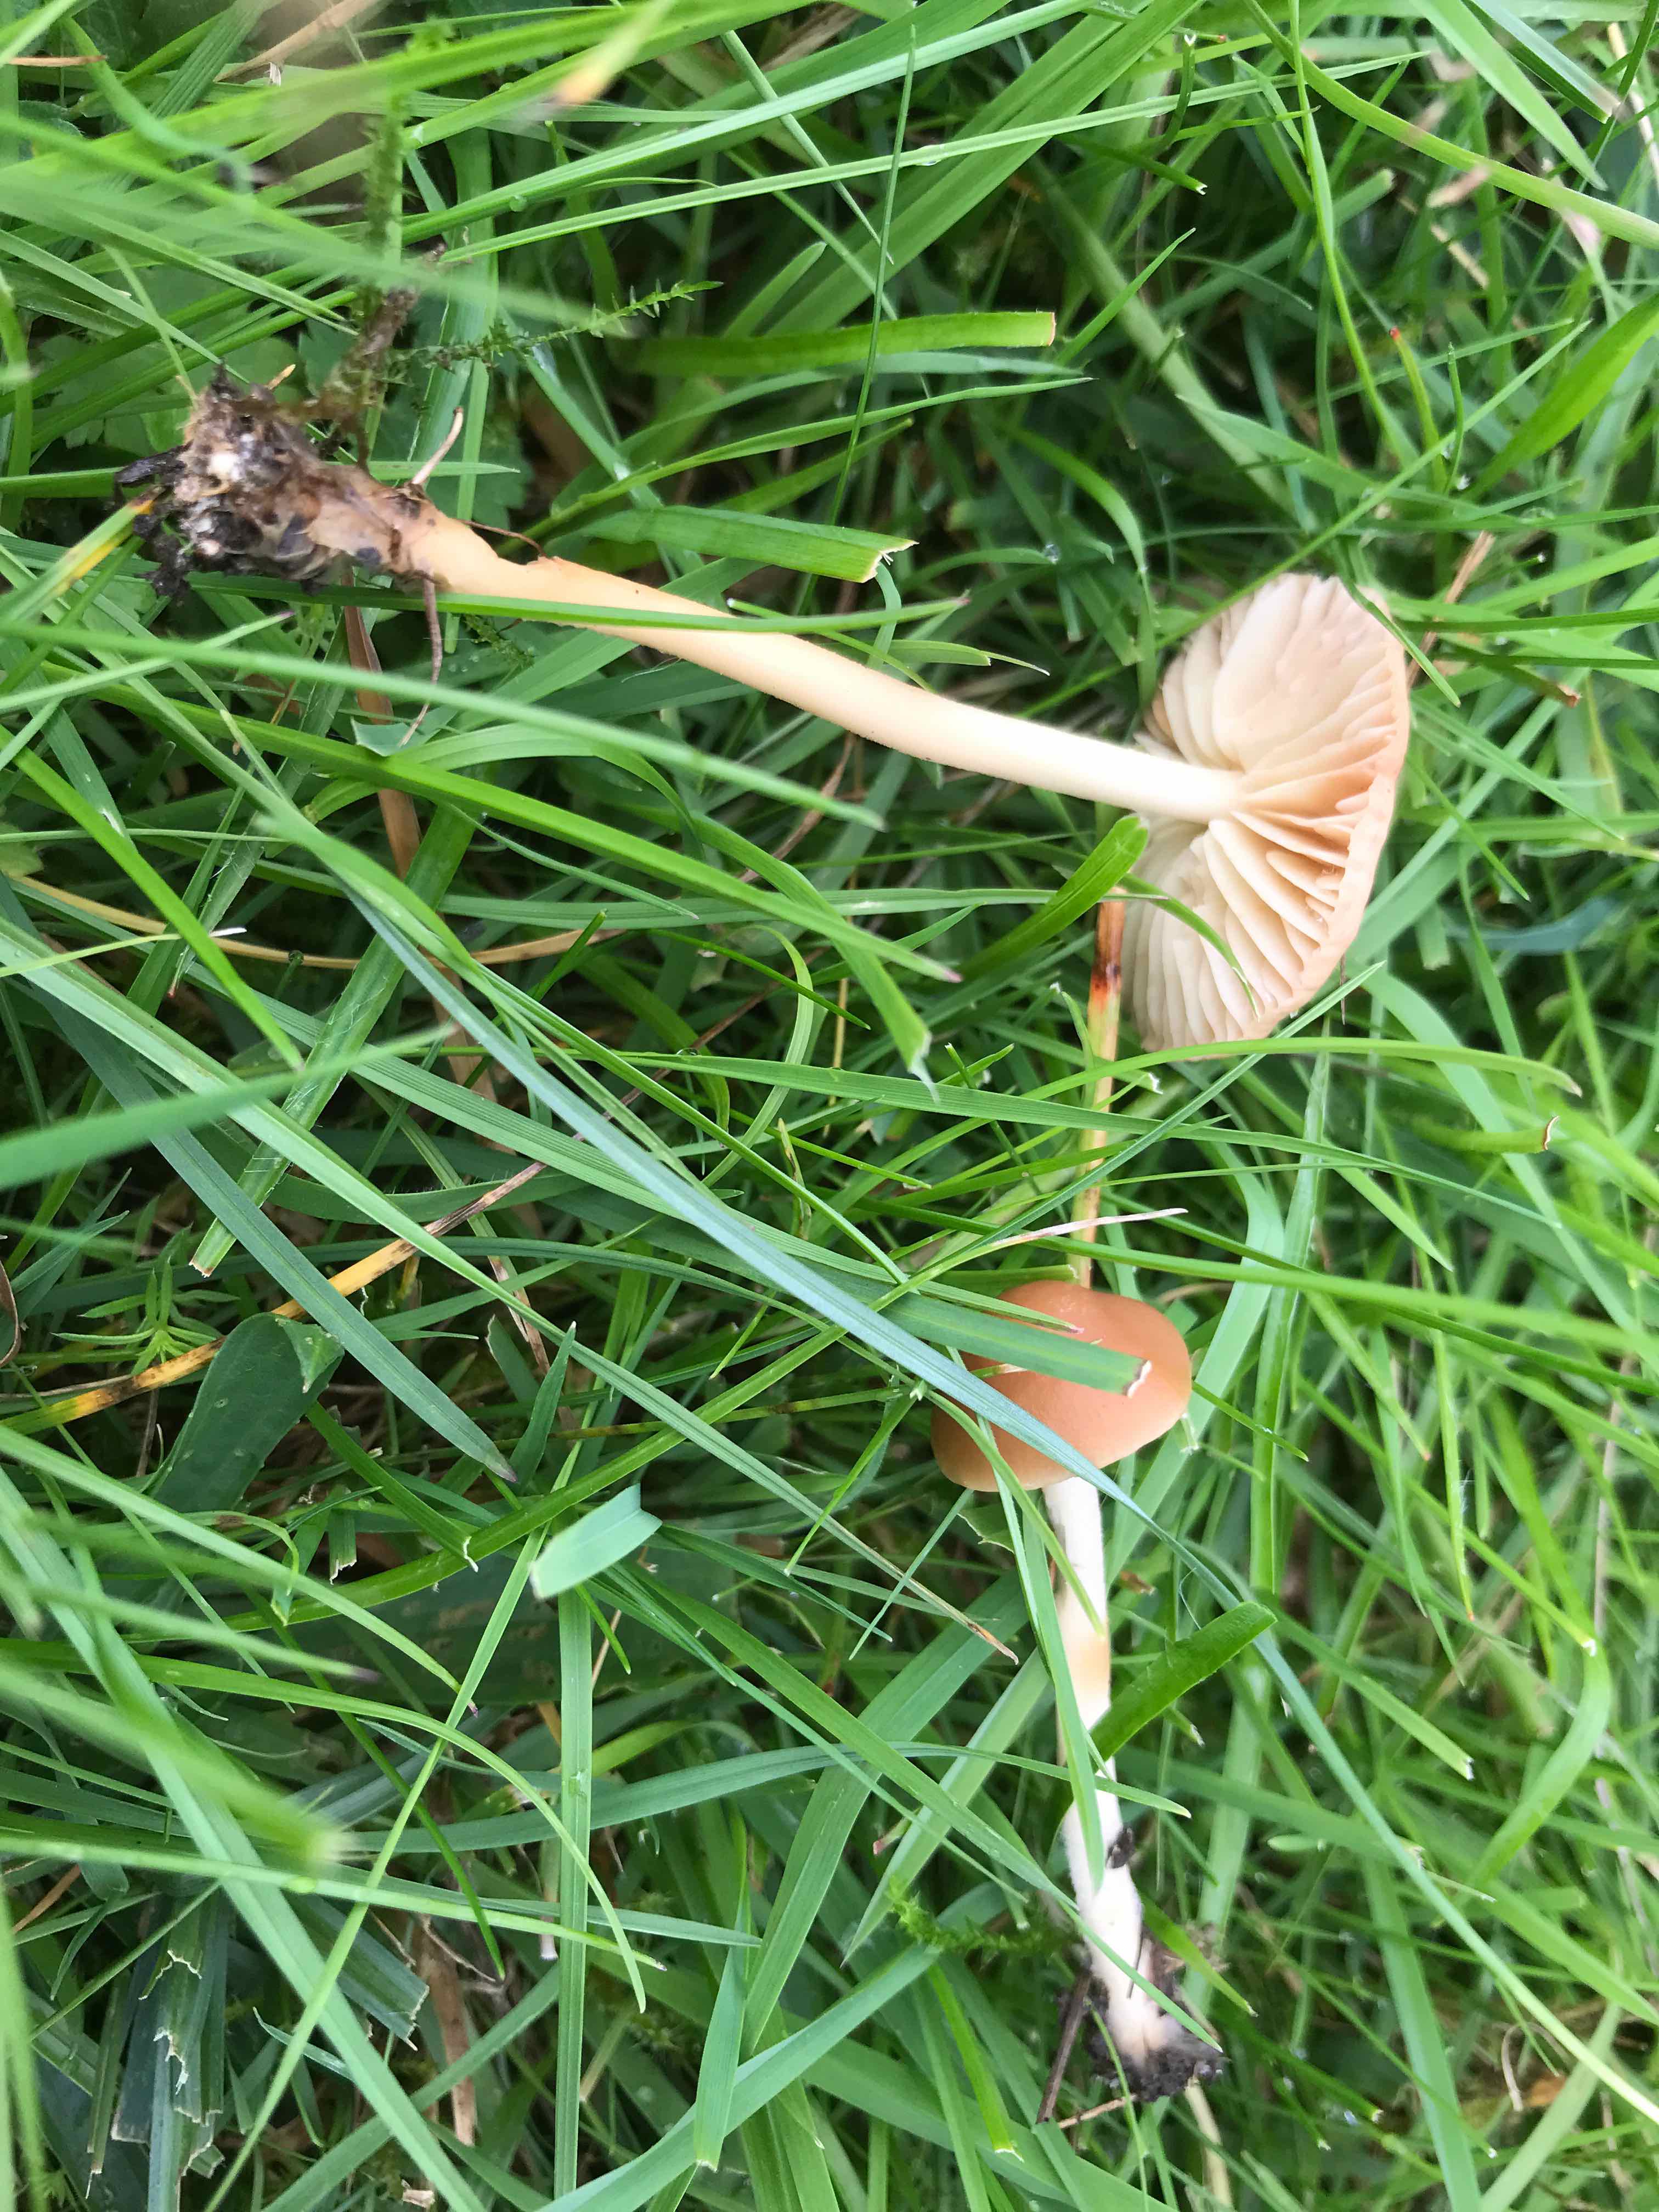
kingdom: Fungi
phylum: Basidiomycota
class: Agaricomycetes
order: Agaricales
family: Marasmiaceae
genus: Marasmius
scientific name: Marasmius oreades
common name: elledans-bruskhat
